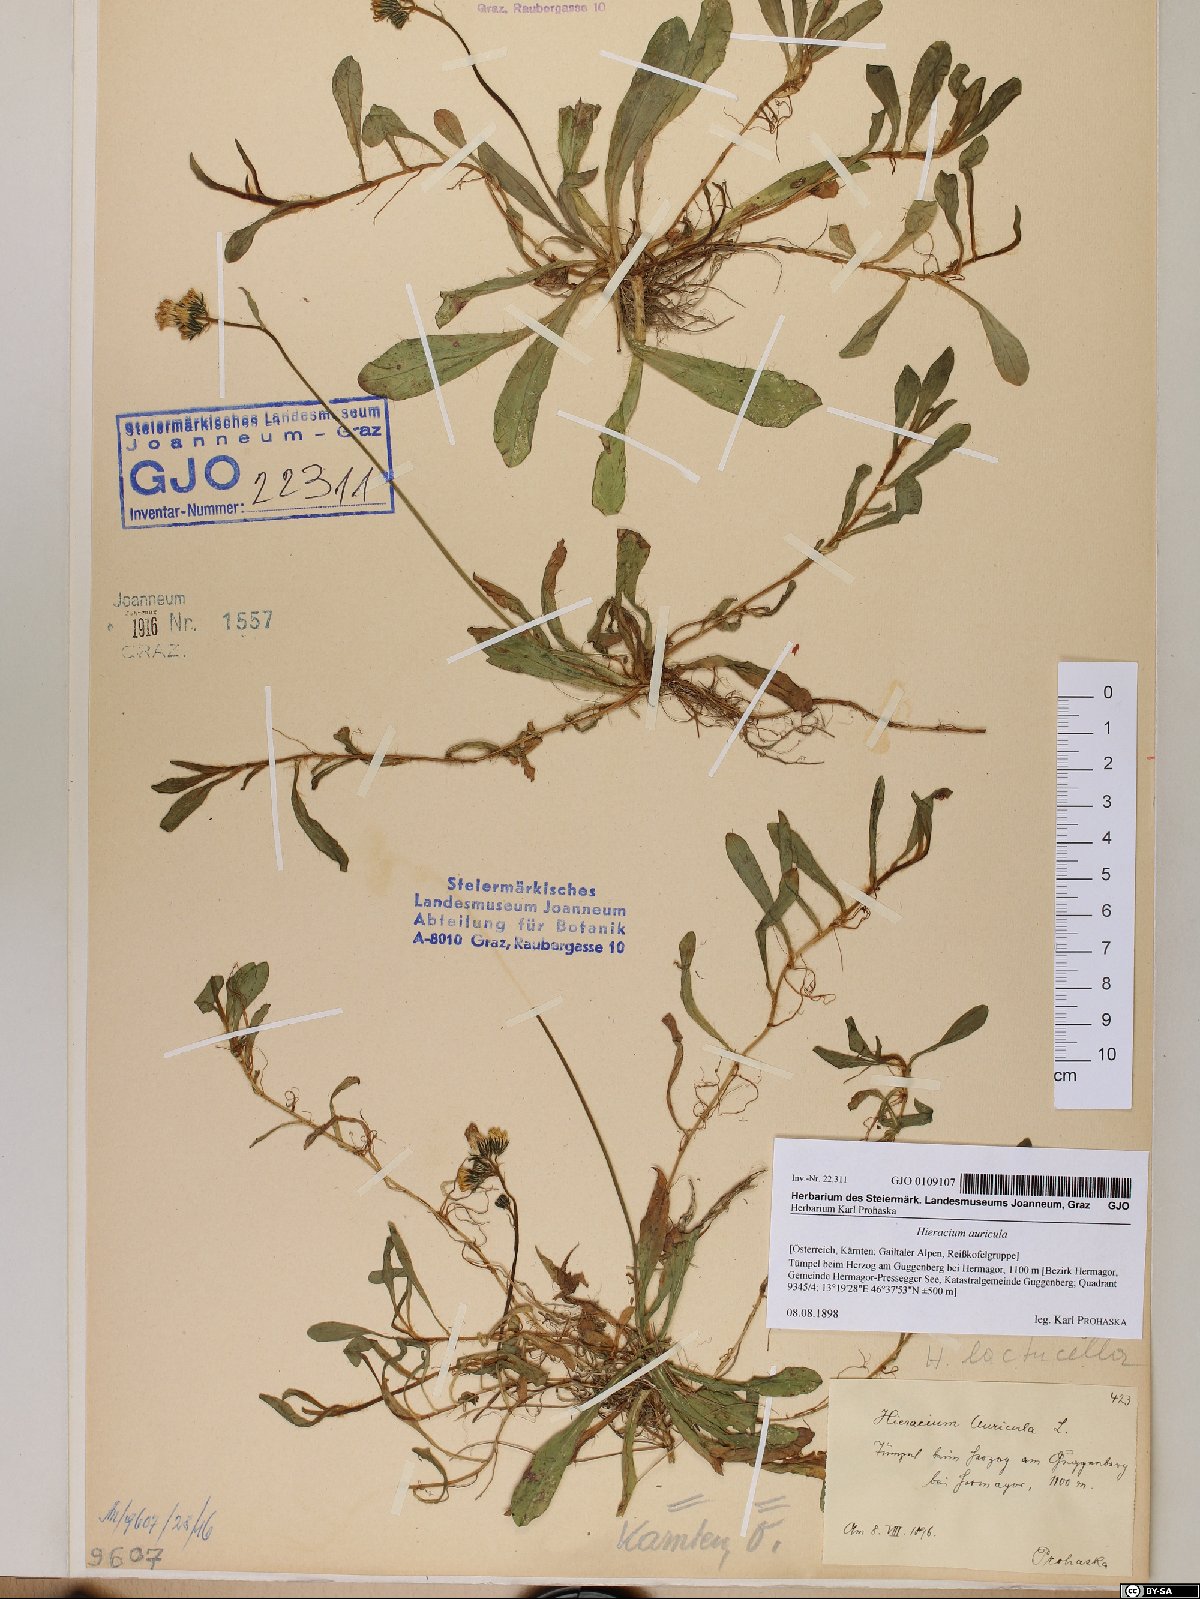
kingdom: Plantae
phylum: Tracheophyta
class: Magnoliopsida
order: Asterales
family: Asteraceae
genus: Hieracium
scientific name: Hieracium auricula
